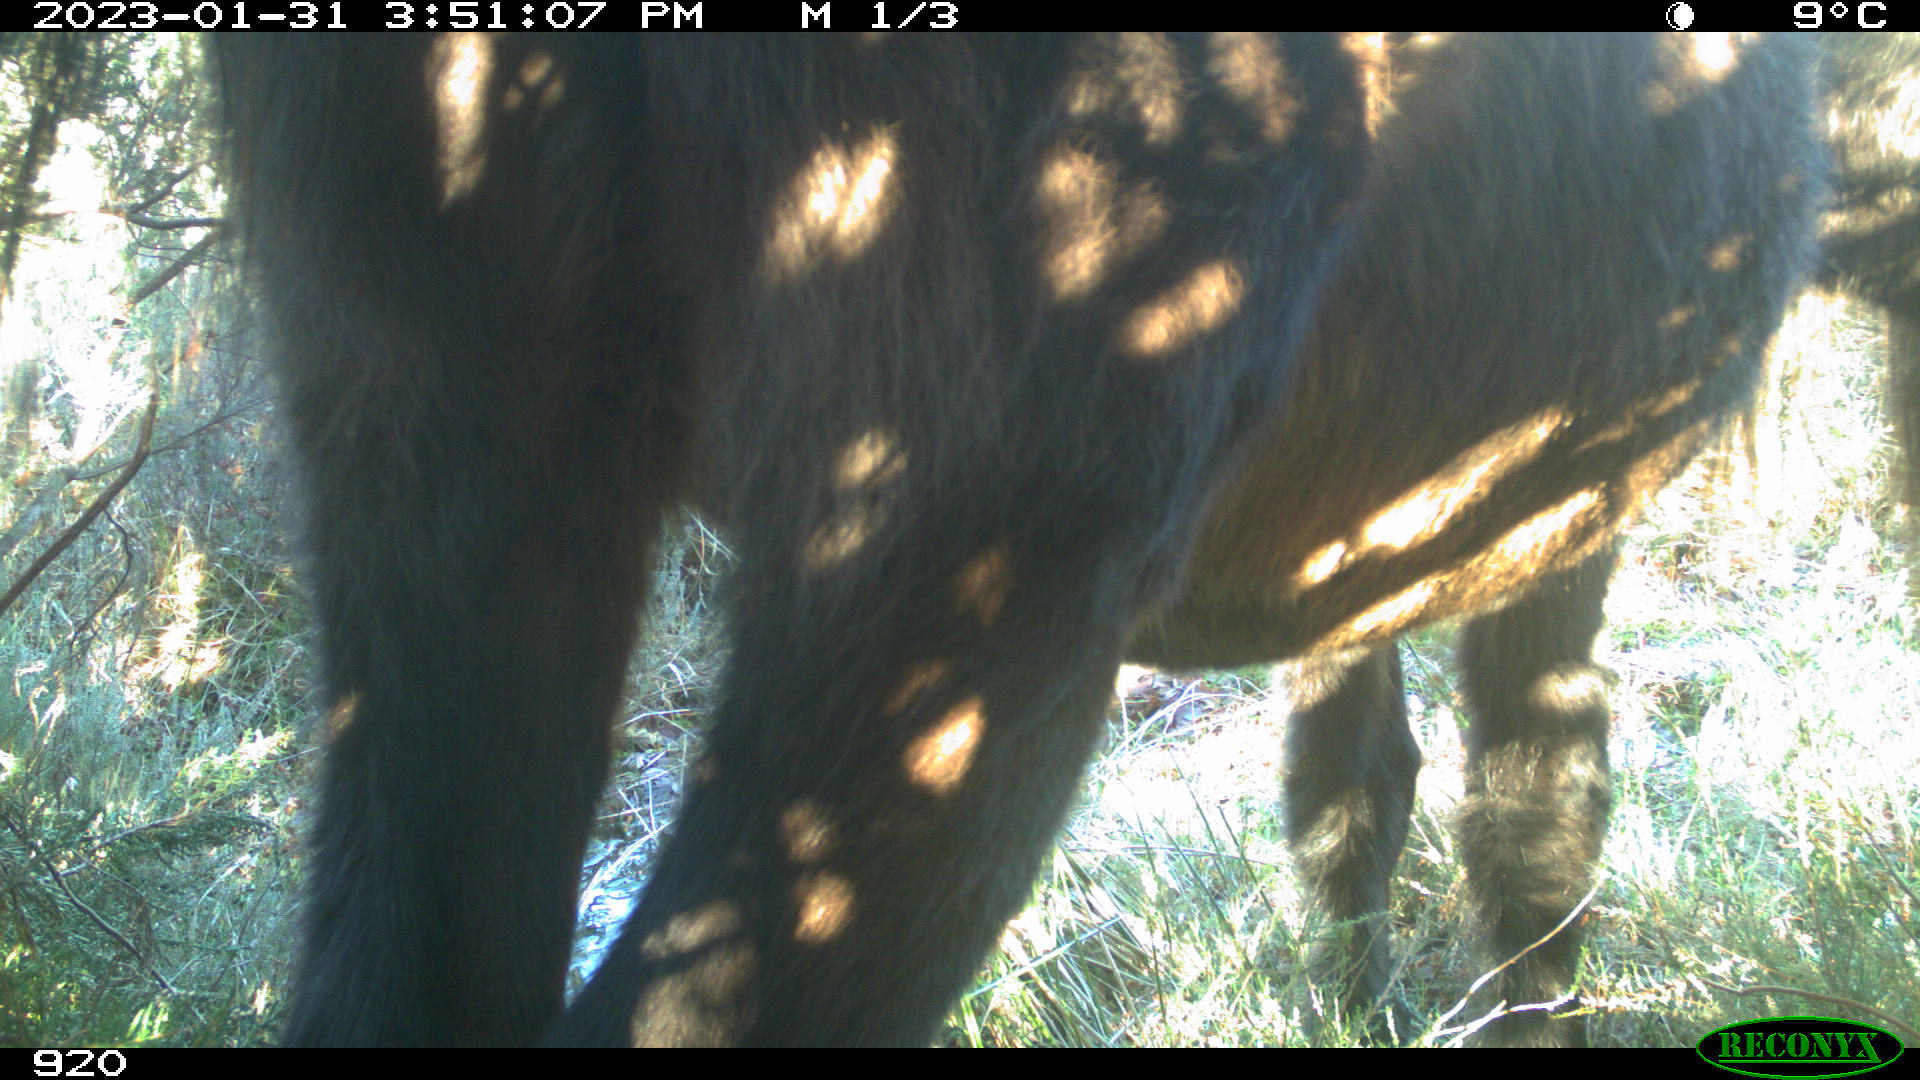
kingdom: Animalia
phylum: Chordata
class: Mammalia
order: Perissodactyla
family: Equidae
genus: Equus
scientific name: Equus caballus
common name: Horse
